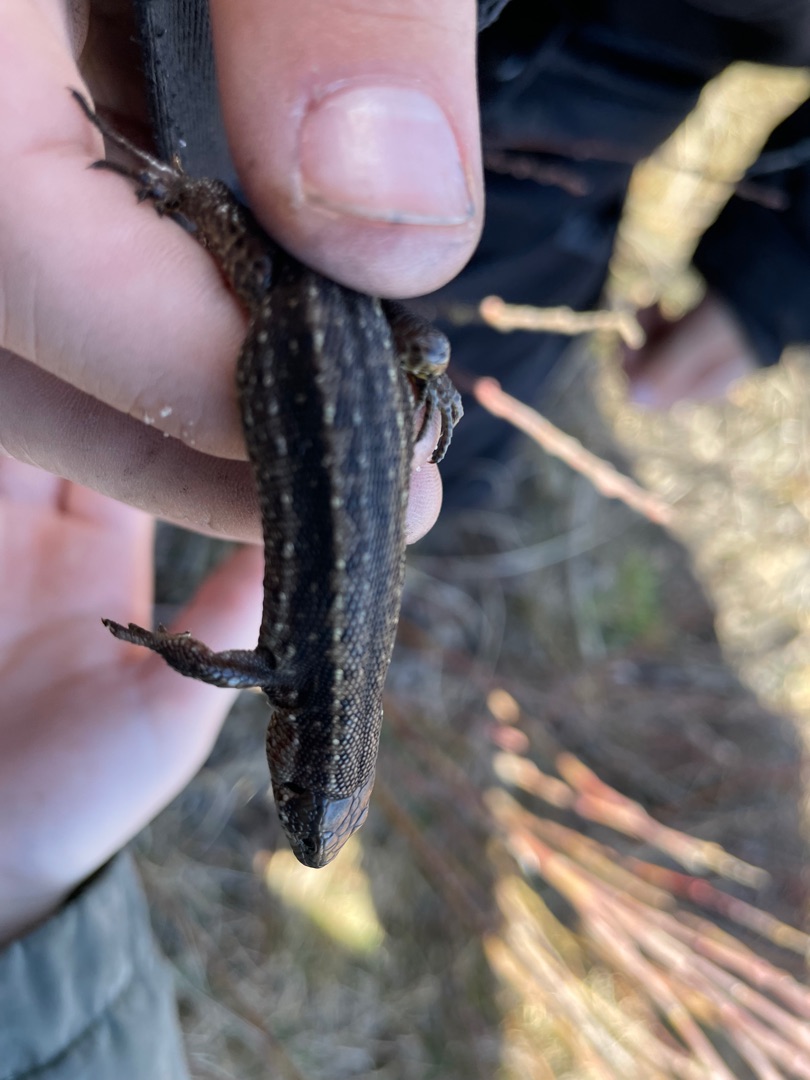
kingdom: Animalia
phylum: Chordata
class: Squamata
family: Lacertidae
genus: Zootoca
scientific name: Zootoca vivipara
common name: Skovfirben
